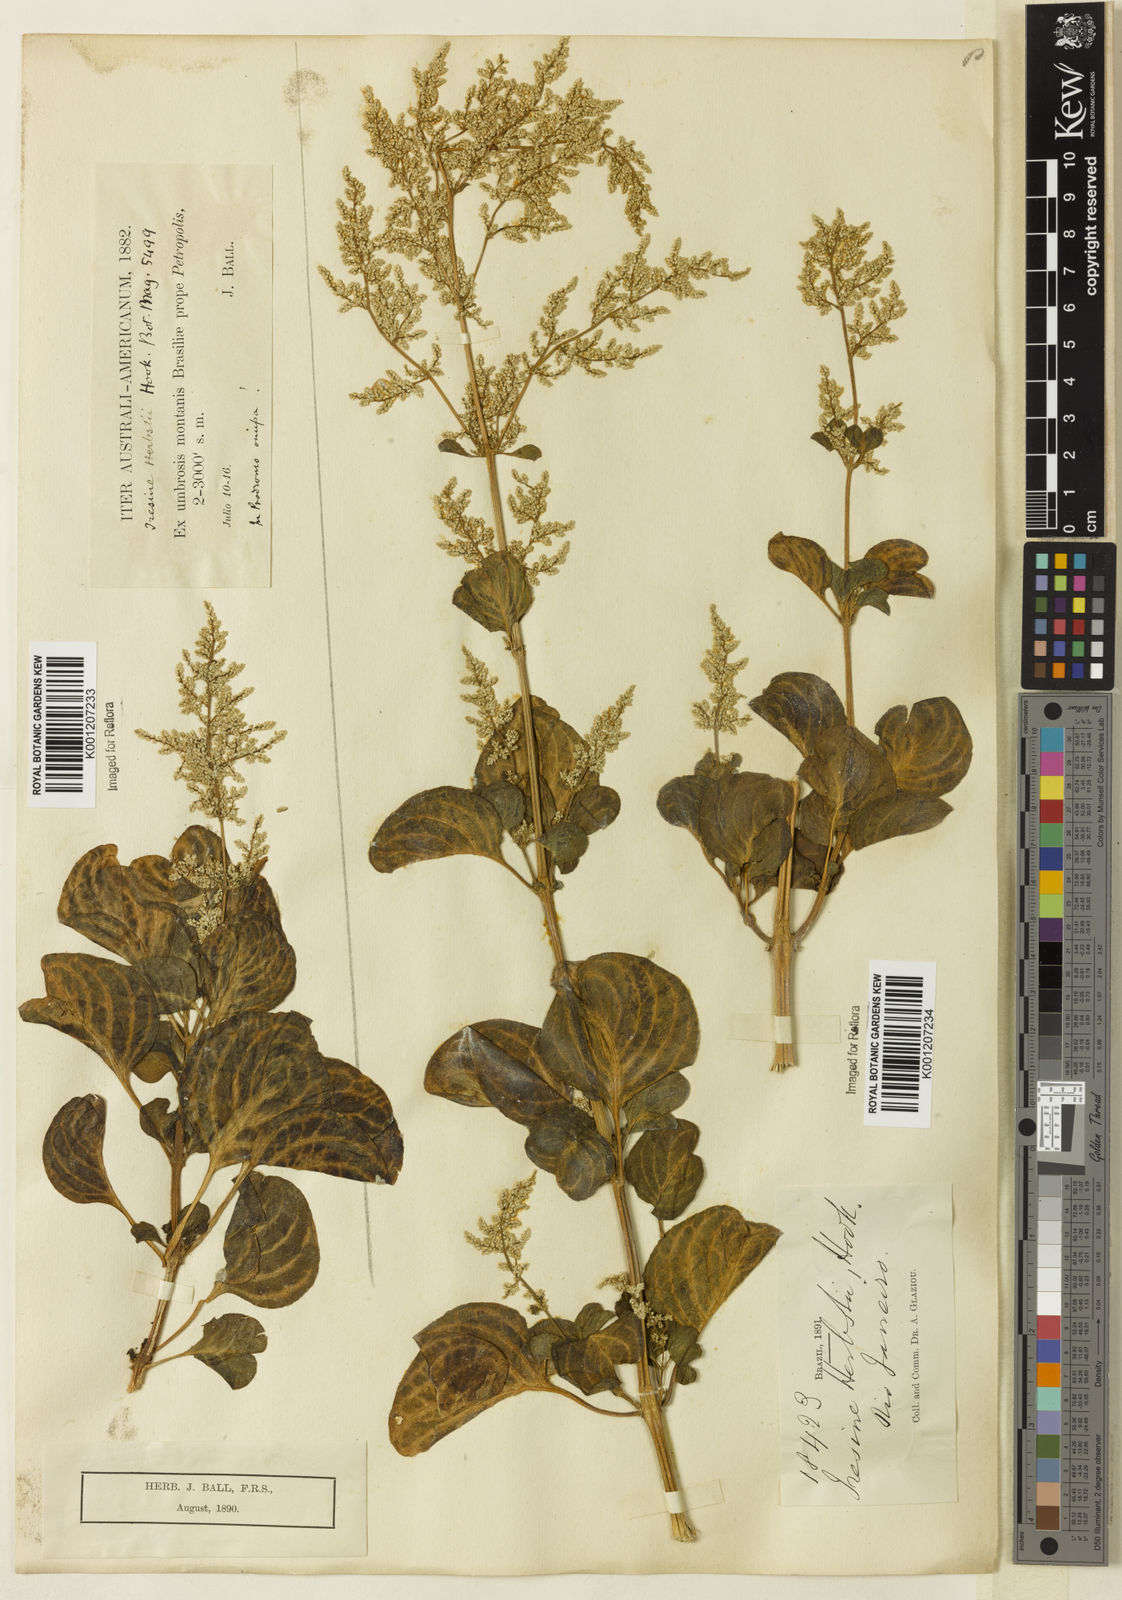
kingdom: Plantae
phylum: Tracheophyta
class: Magnoliopsida
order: Caryophyllales
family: Amaranthaceae
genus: Iresine
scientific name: Iresine diffusa
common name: Juba's-bush
